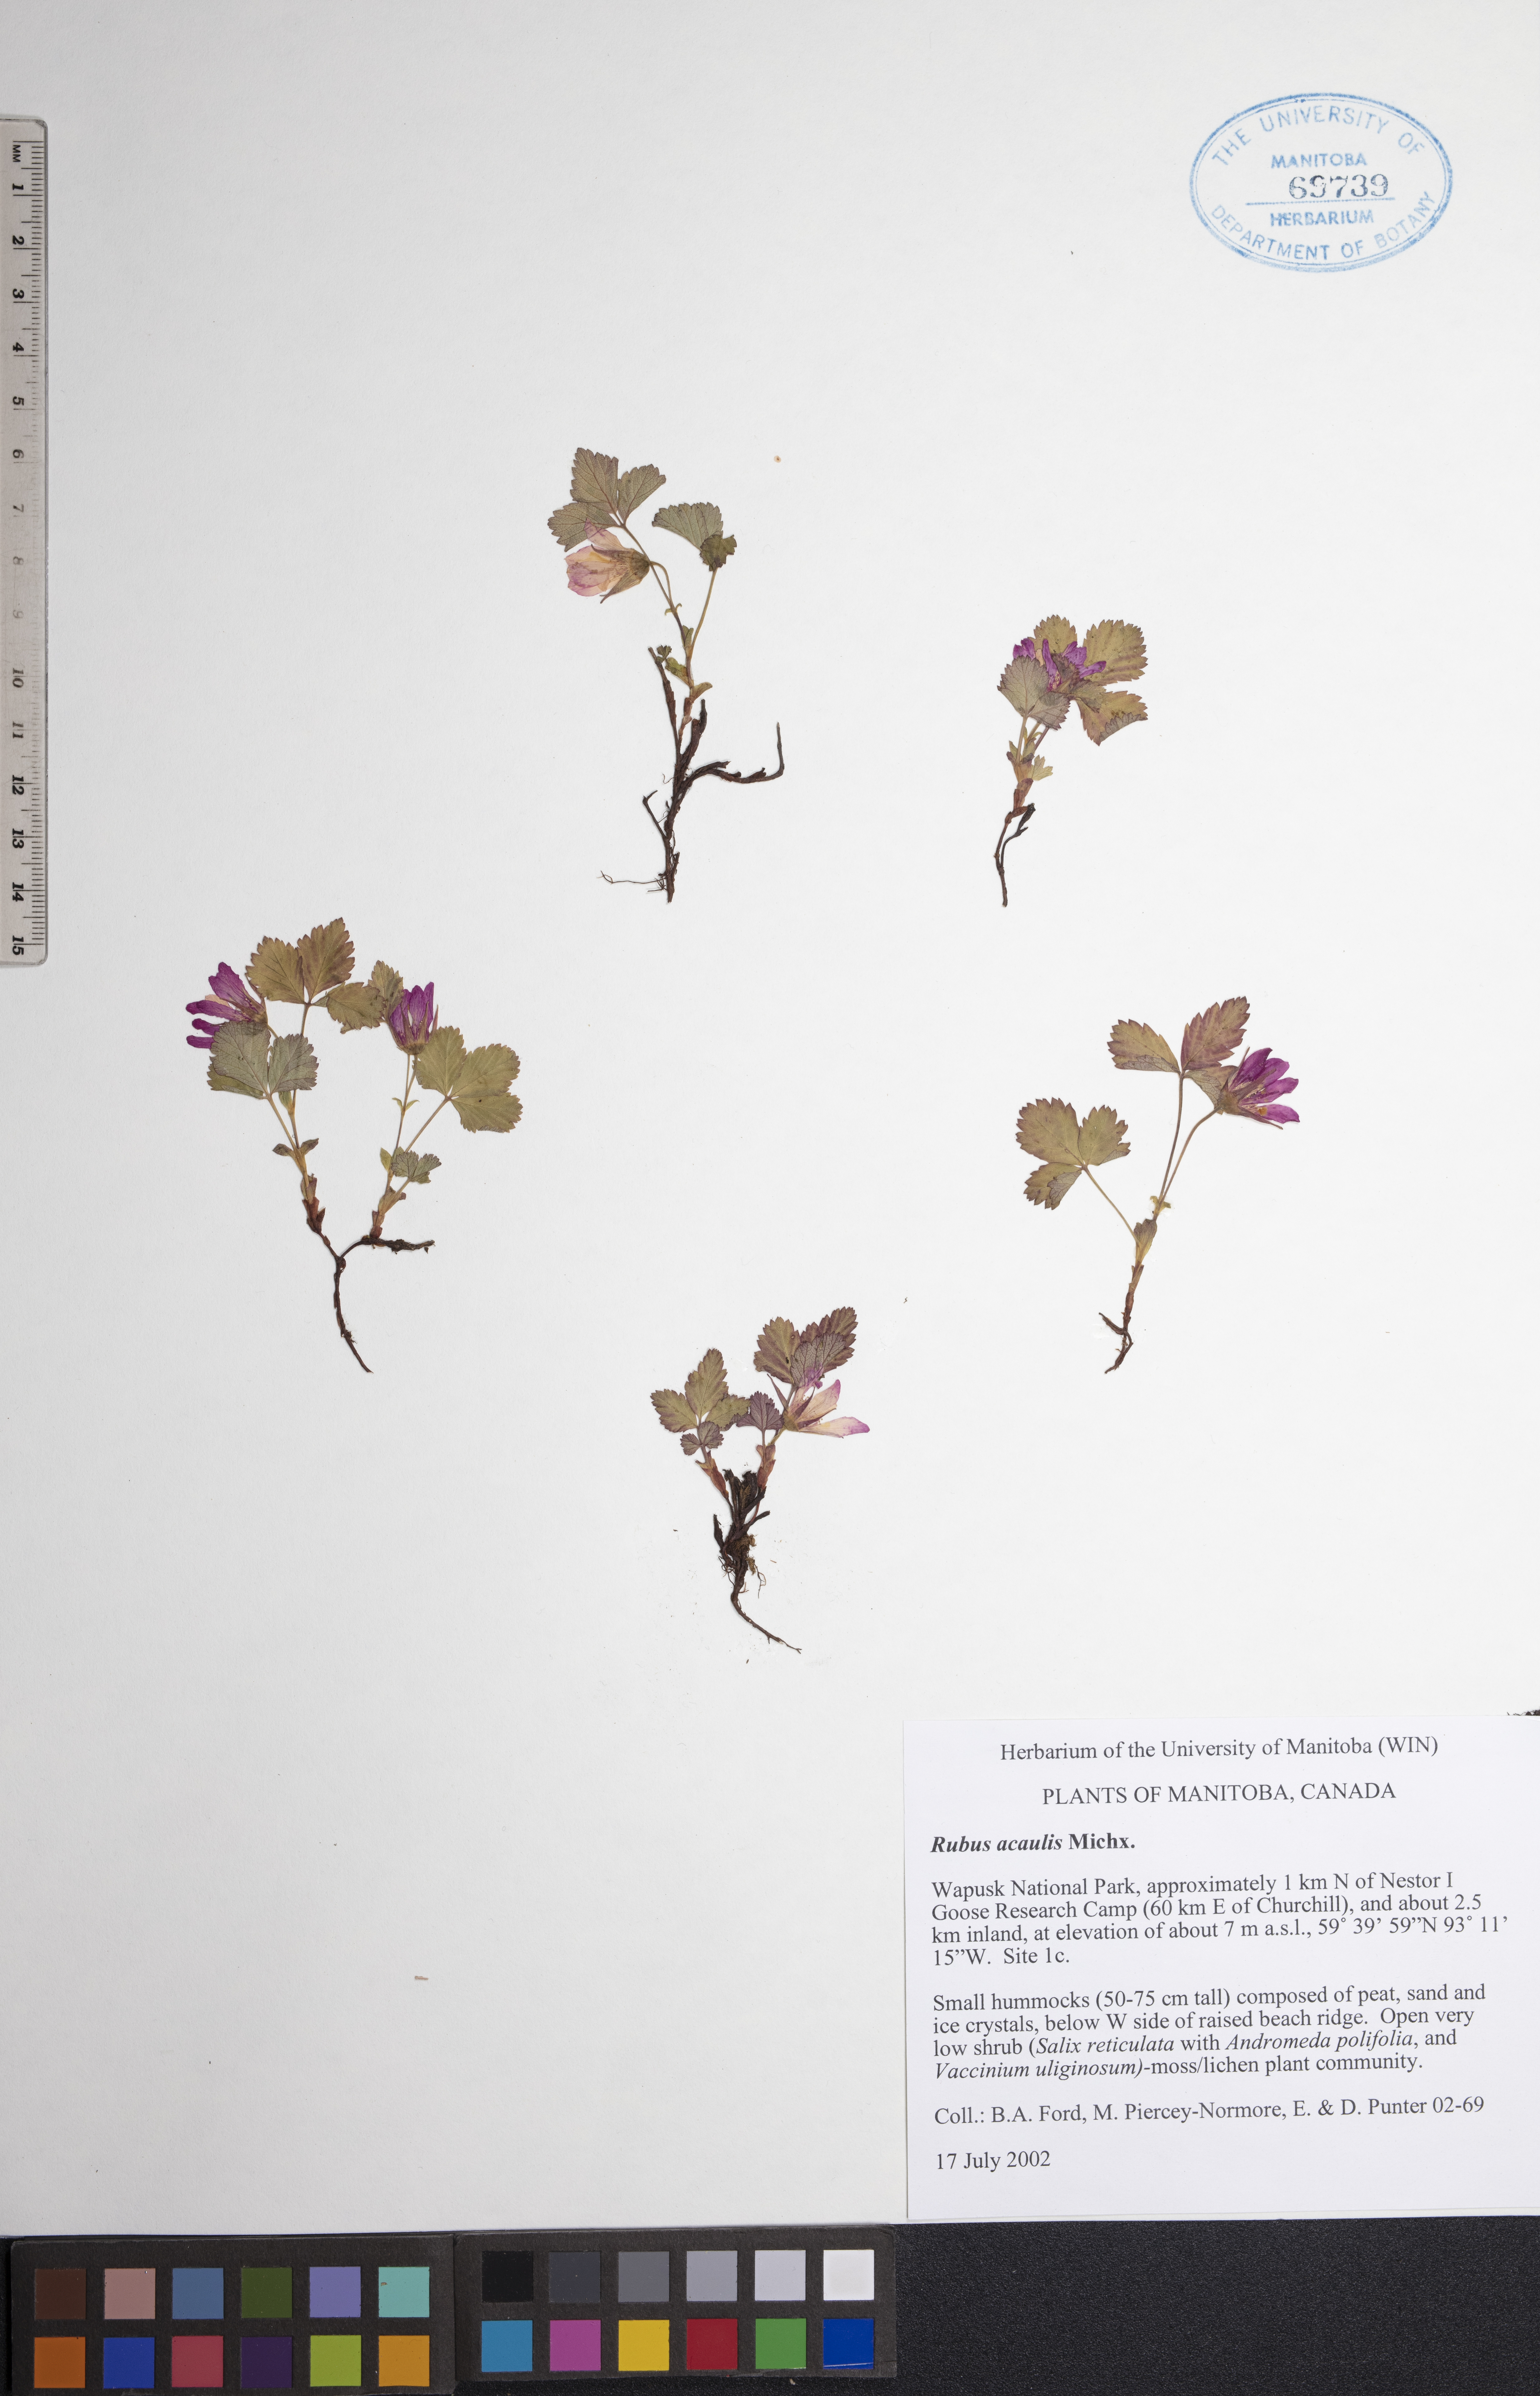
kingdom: Plantae
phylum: Tracheophyta
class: Magnoliopsida
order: Rosales
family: Rosaceae
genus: Rubus
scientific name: Rubus arcticus
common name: Arctic bramble
